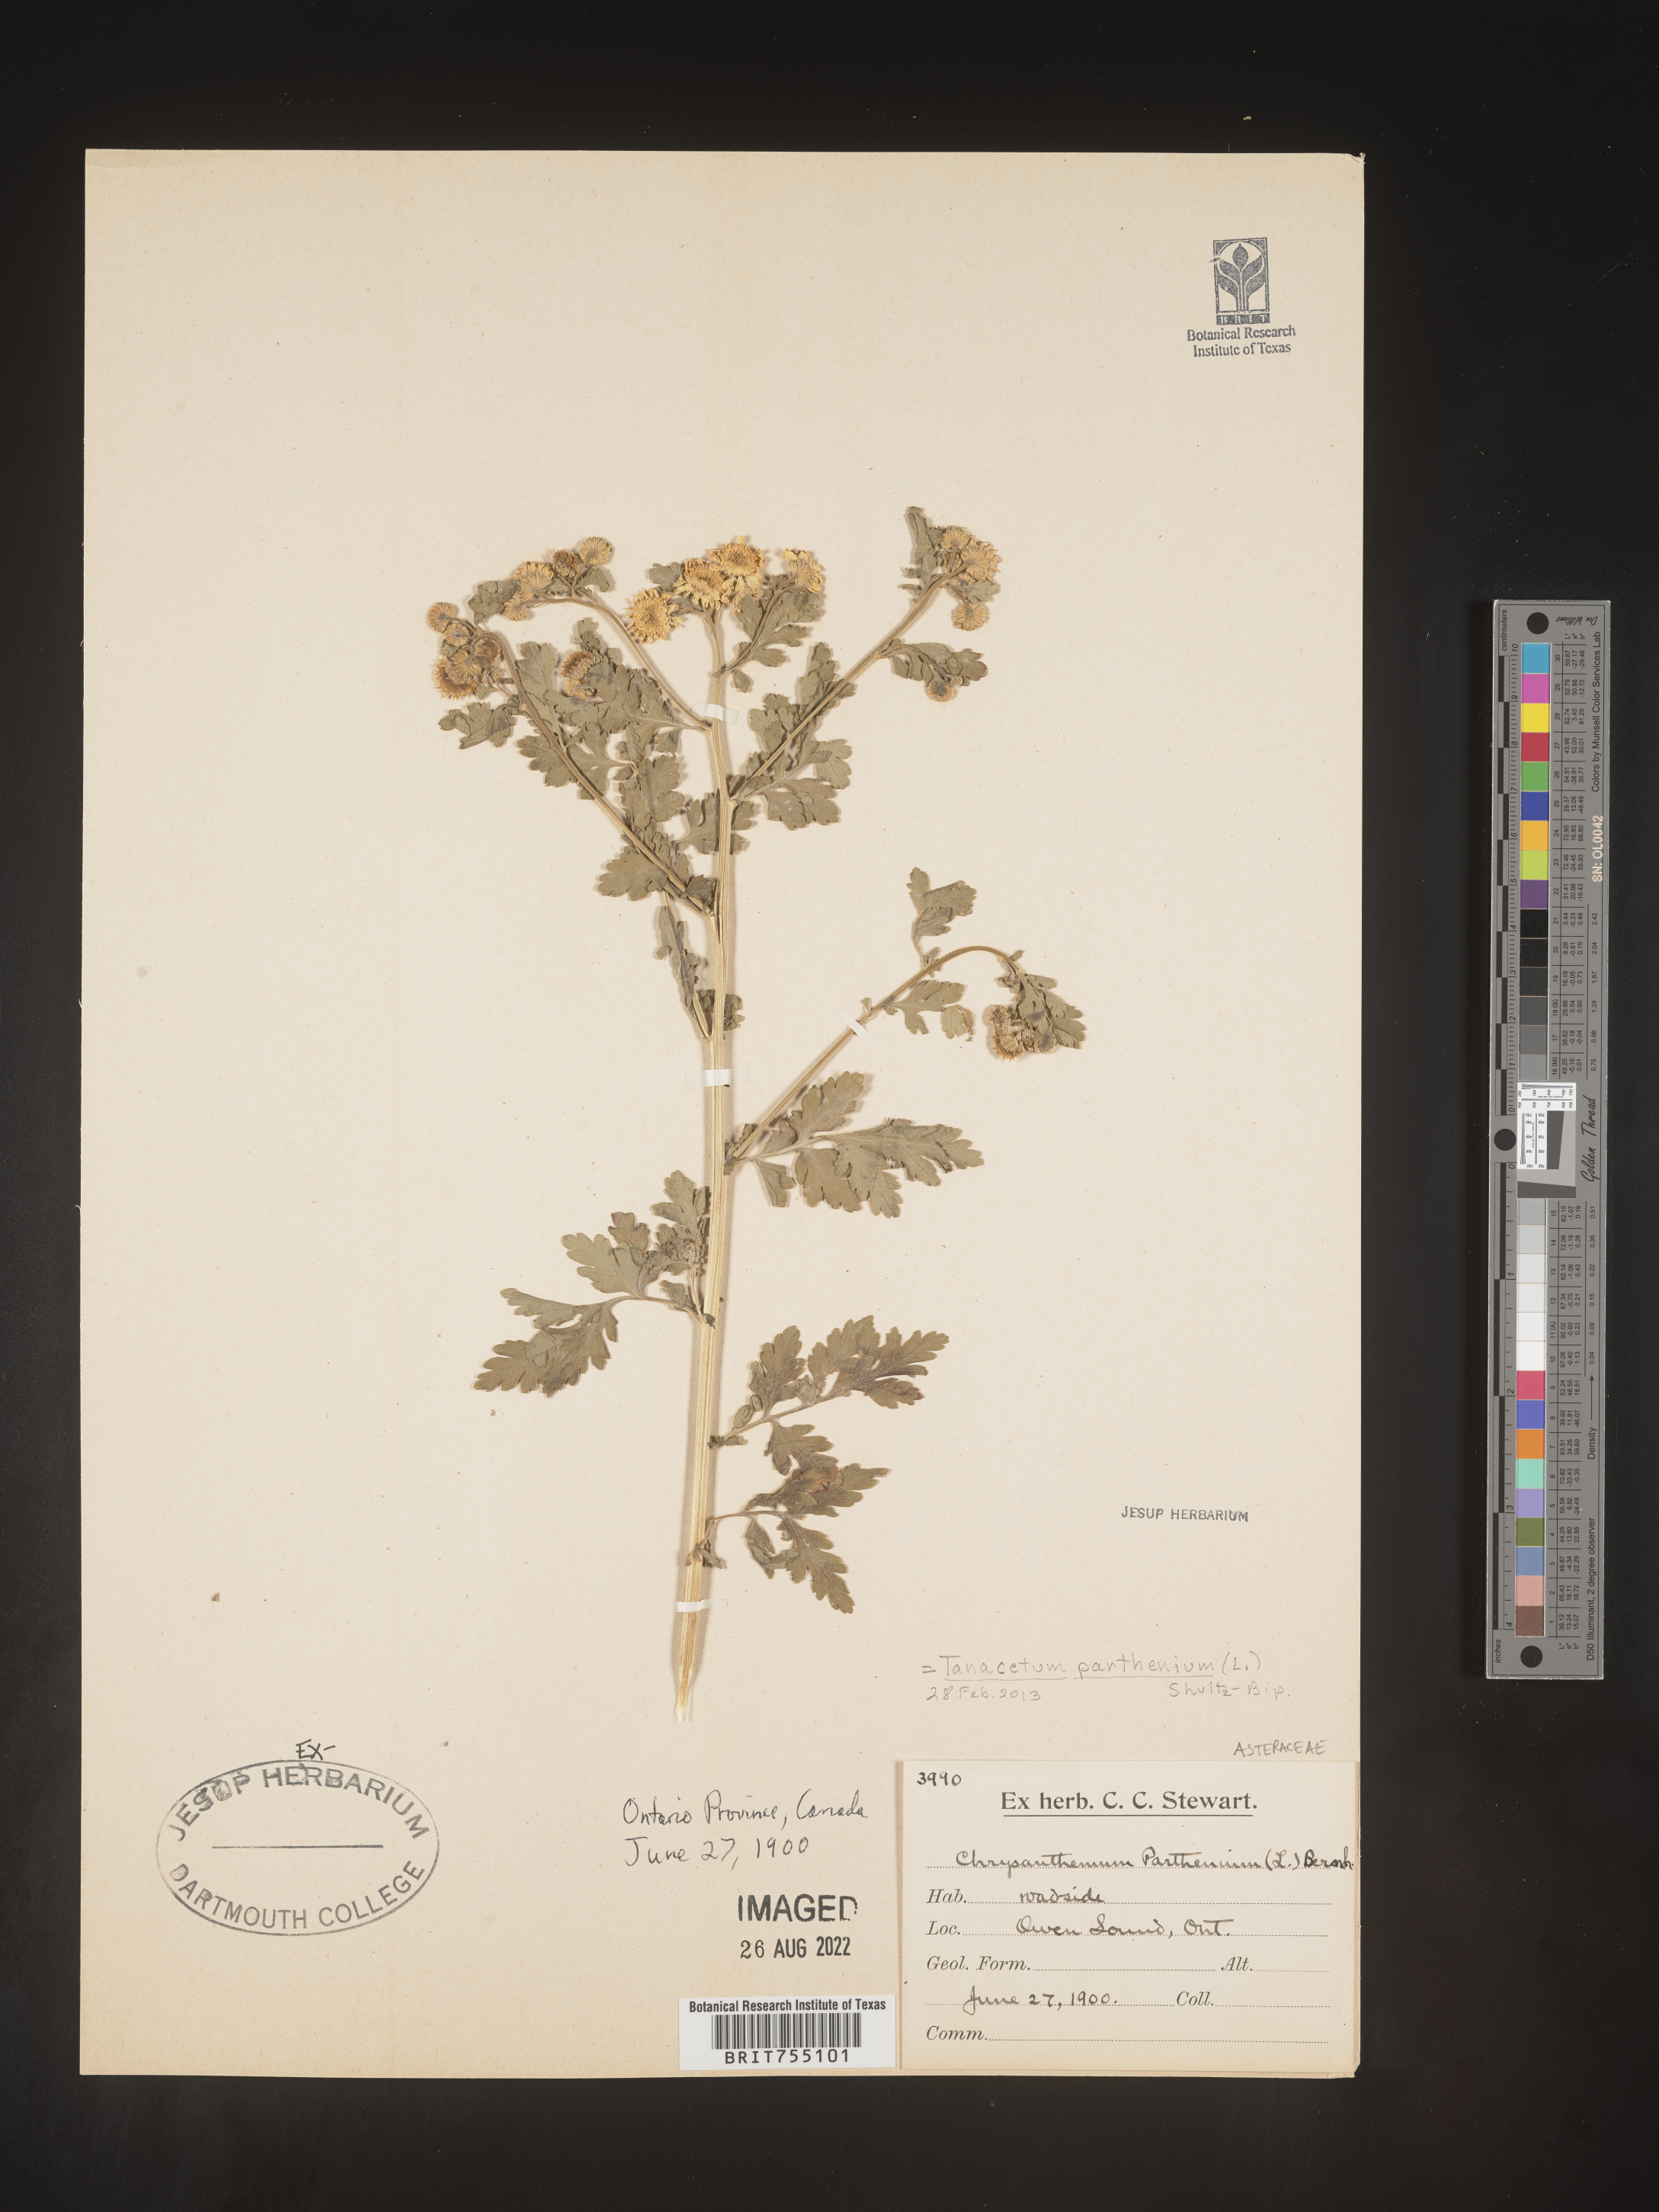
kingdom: Plantae
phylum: Tracheophyta
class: Magnoliopsida
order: Asterales
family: Asteraceae
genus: Tanacetum
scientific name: Tanacetum
